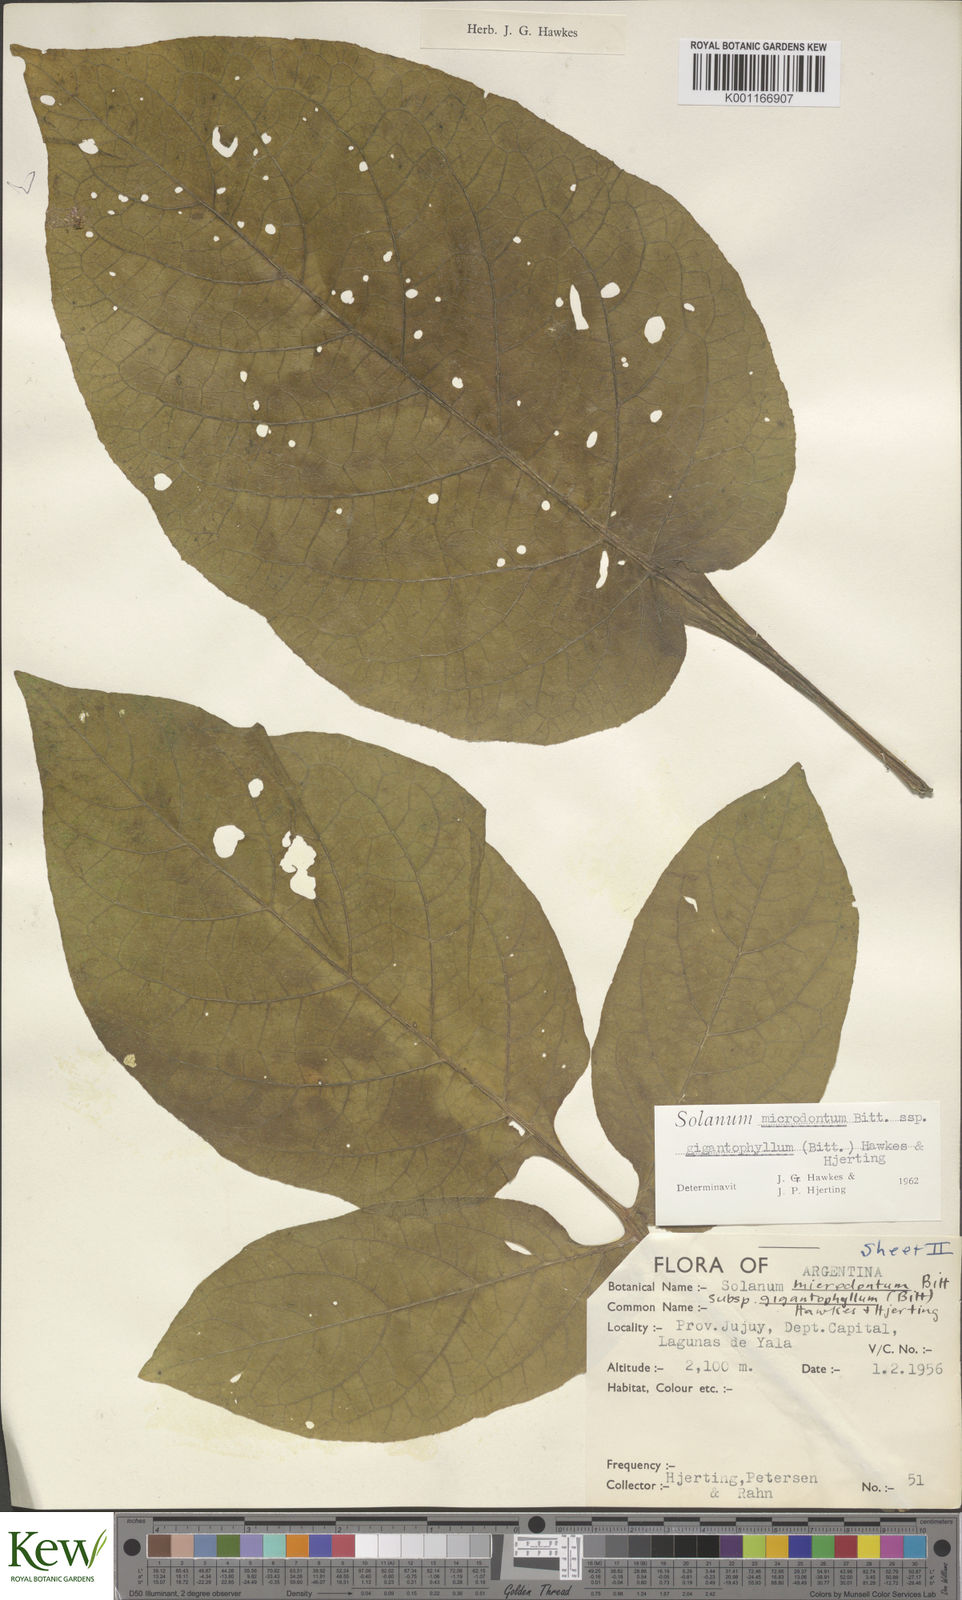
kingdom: Plantae
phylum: Tracheophyta
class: Magnoliopsida
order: Solanales
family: Solanaceae
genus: Solanum
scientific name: Solanum microdontum
